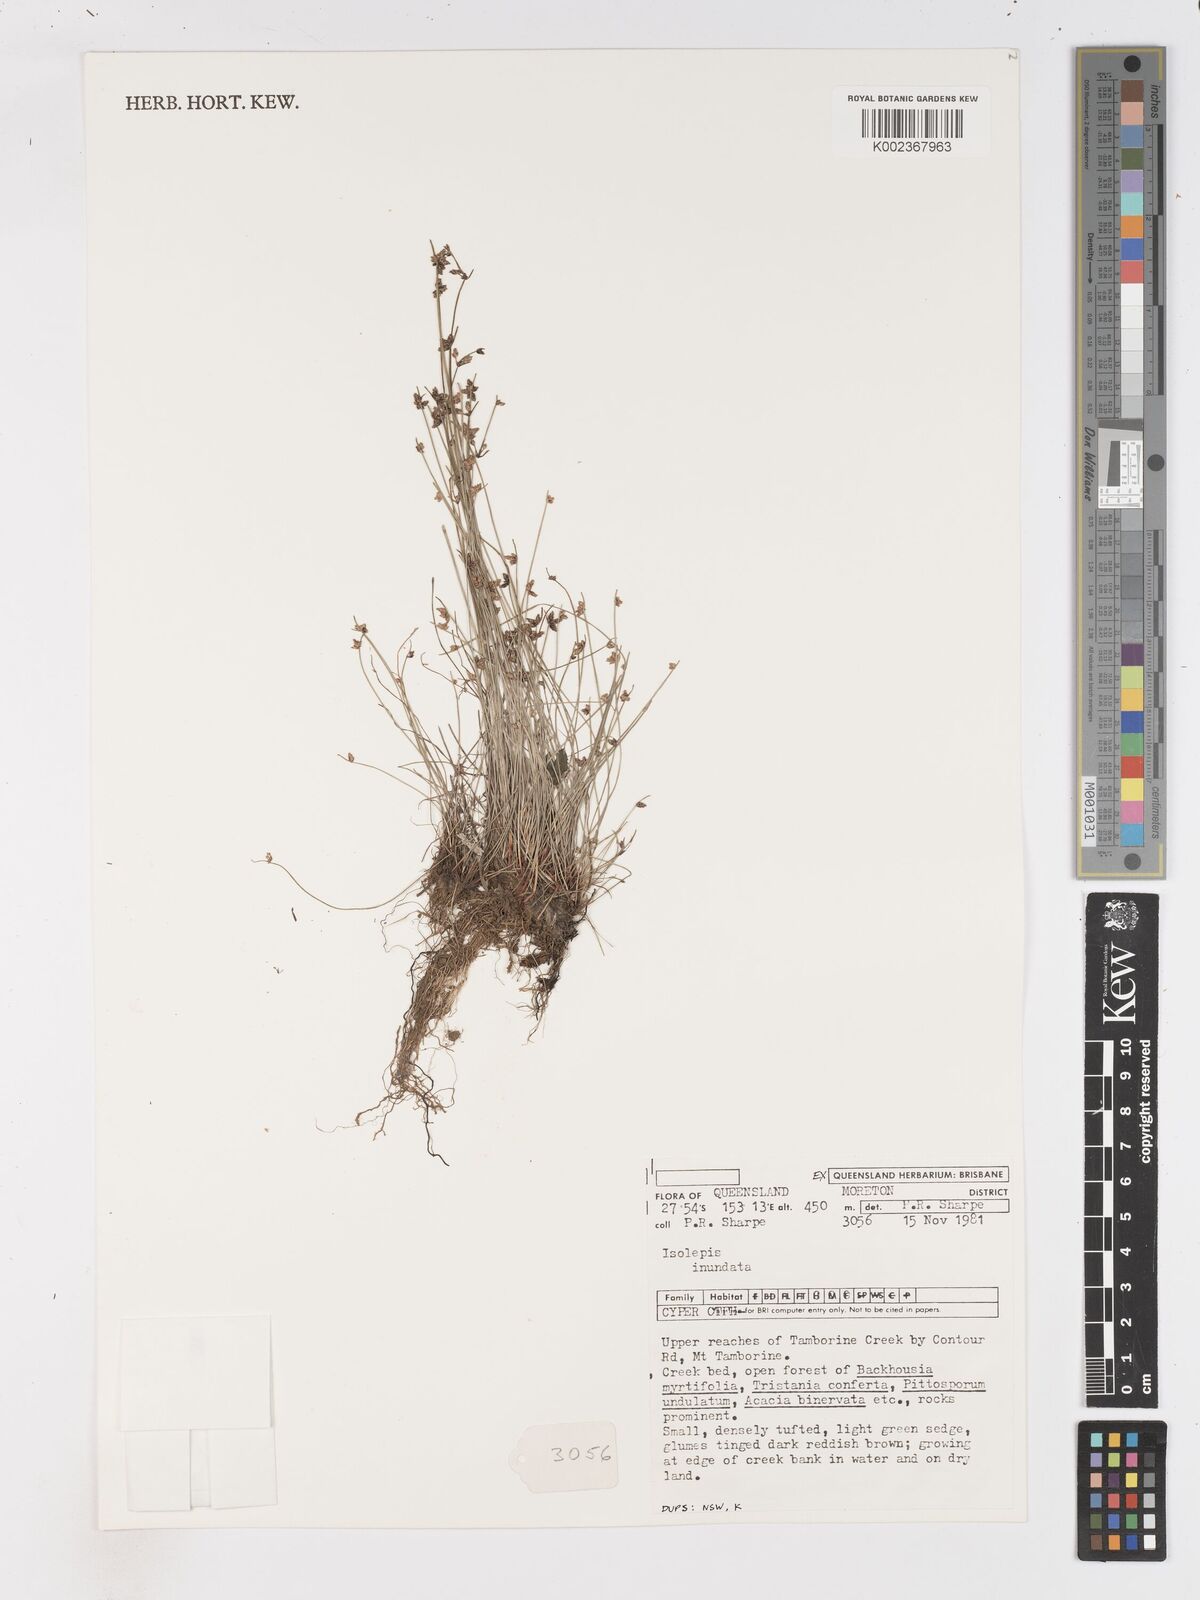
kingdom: Plantae
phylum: Tracheophyta
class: Liliopsida
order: Poales
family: Cyperaceae
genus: Isolepis
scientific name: Isolepis inundata
